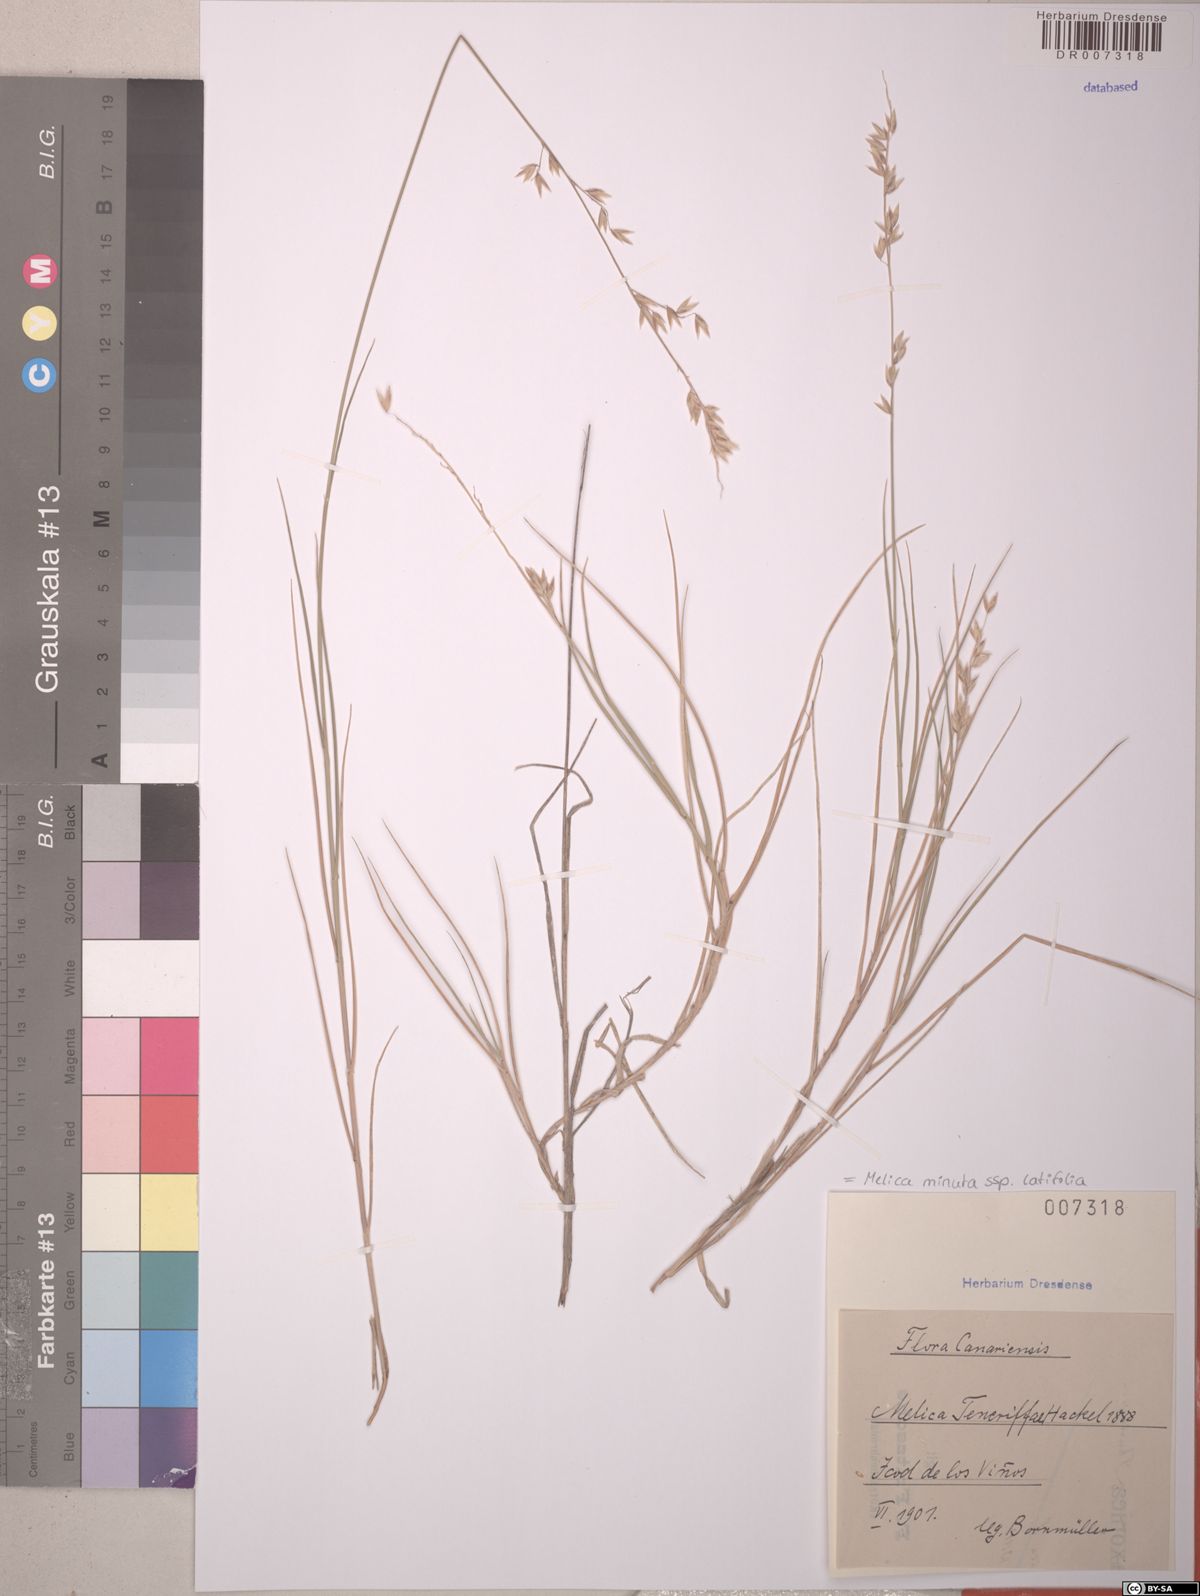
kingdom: Plantae
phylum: Tracheophyta
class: Liliopsida
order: Poales
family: Poaceae
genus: Melica
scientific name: Melica minuta
